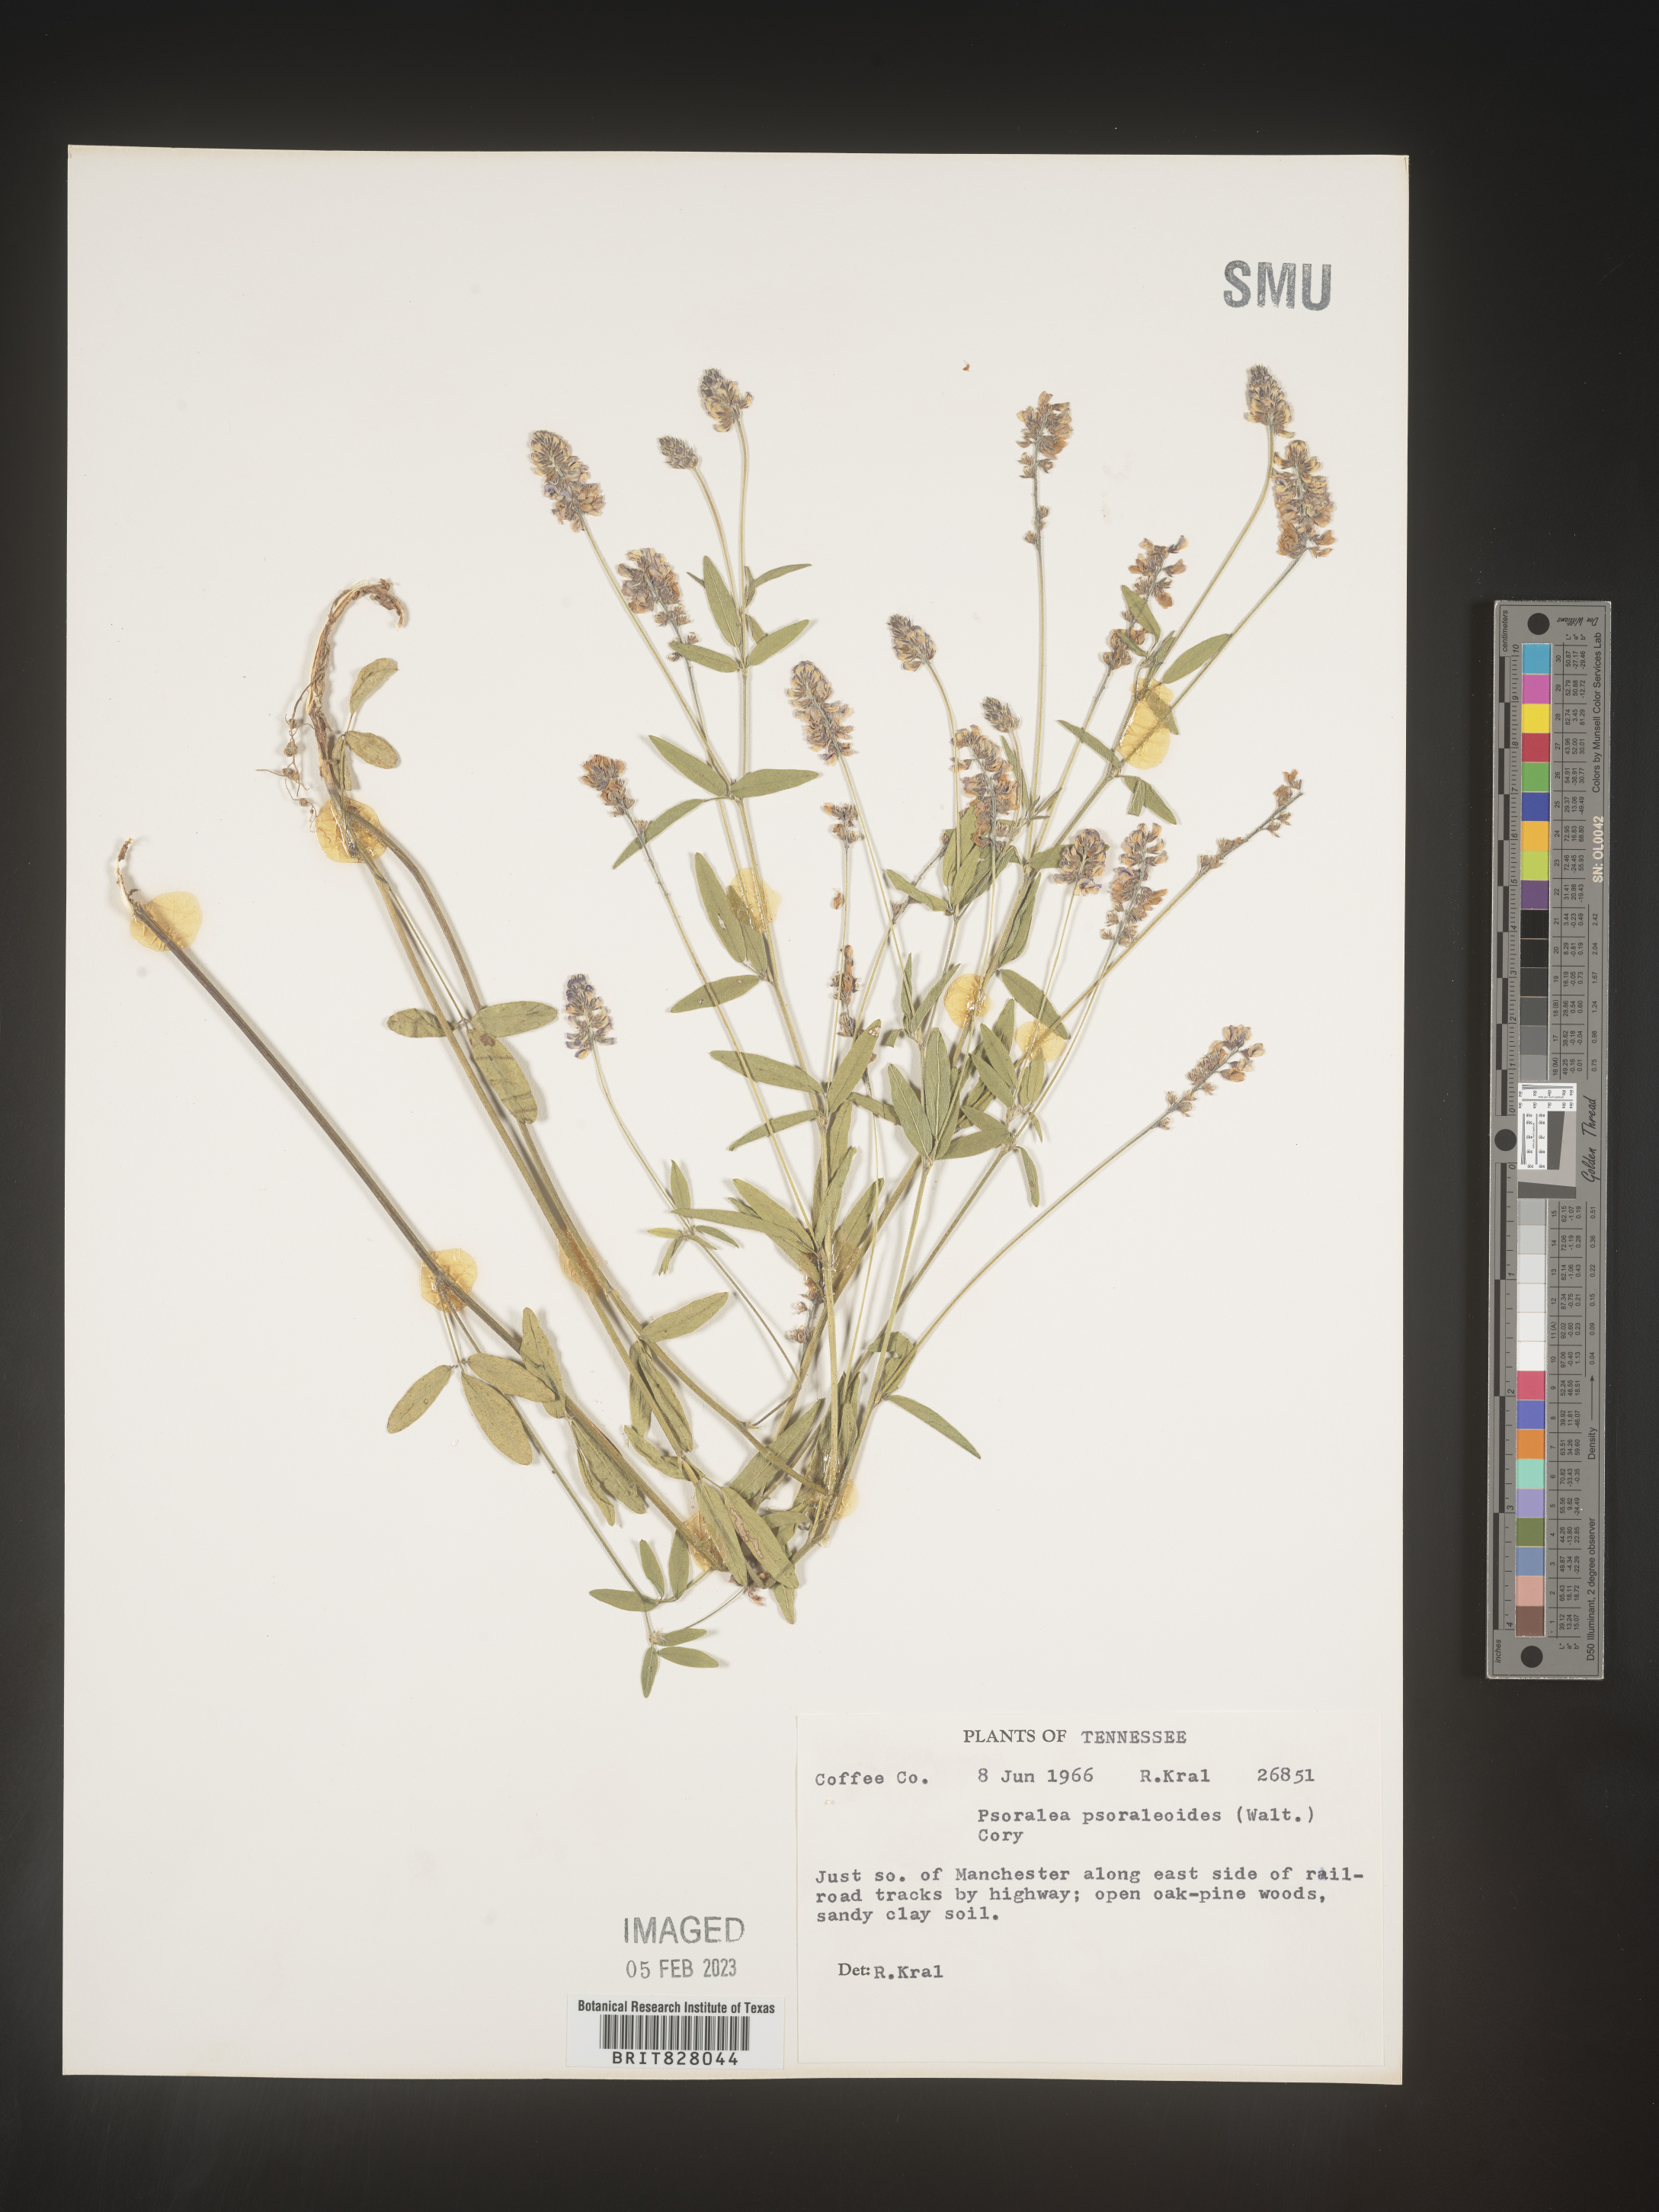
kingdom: Plantae
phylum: Tracheophyta
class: Magnoliopsida
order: Fabales
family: Fabaceae
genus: Orbexilum
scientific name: Orbexilum pedunculatum
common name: Sampson's snakeroot
